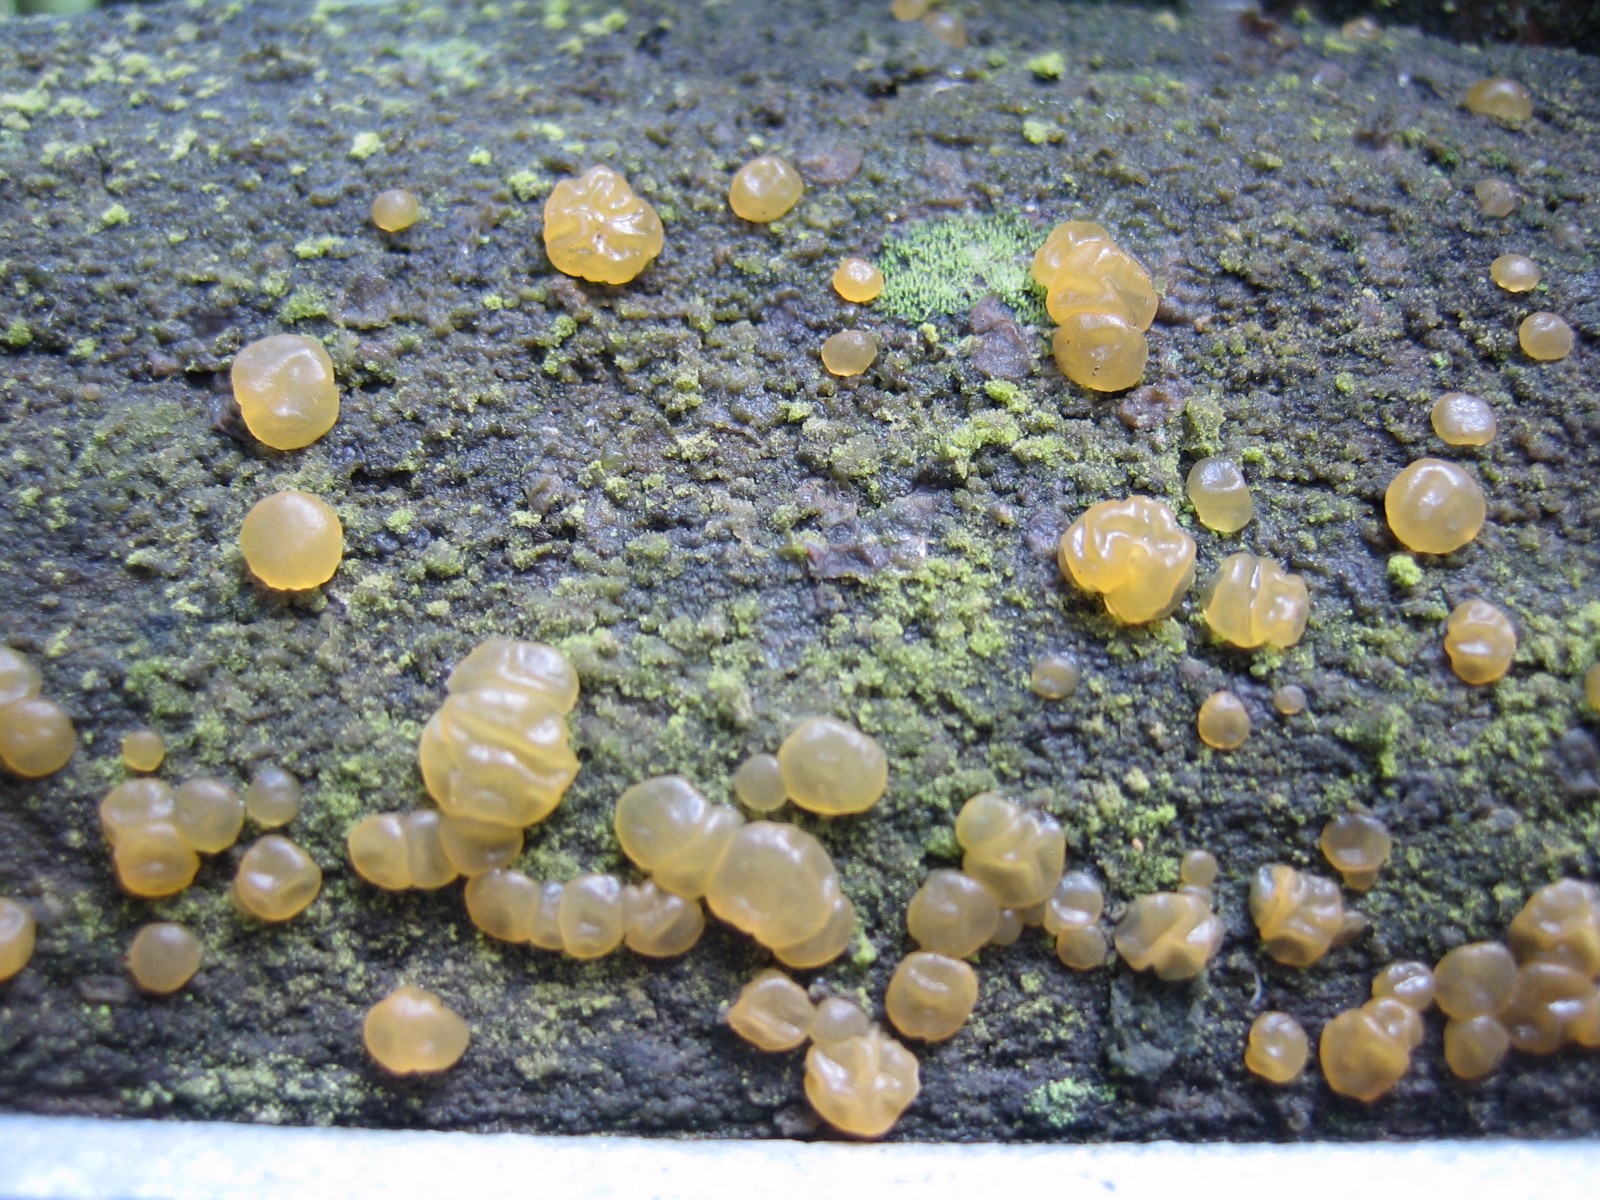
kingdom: Fungi
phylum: Basidiomycota
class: Dacrymycetes
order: Dacrymycetales
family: Dacrymycetaceae
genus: Dacrymyces
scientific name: Dacrymyces
